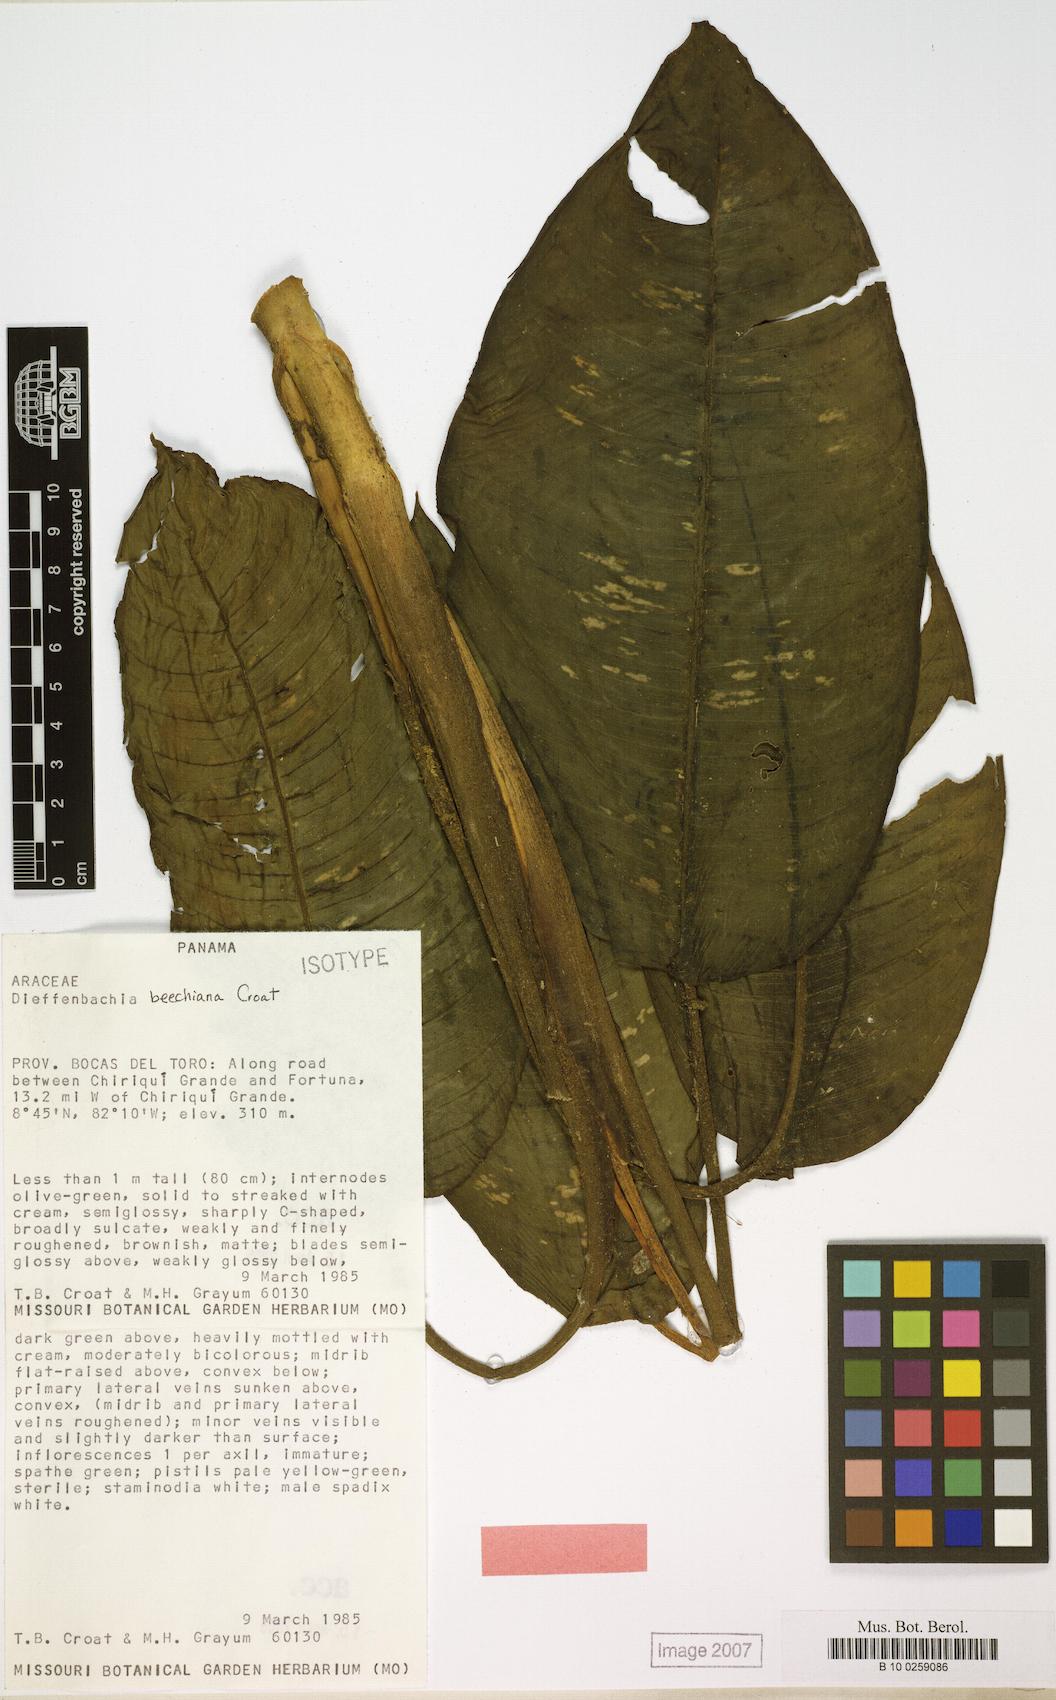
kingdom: Plantae
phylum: Tracheophyta
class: Liliopsida
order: Alismatales
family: Araceae
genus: Dieffenbachia
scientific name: Dieffenbachia bechiana
